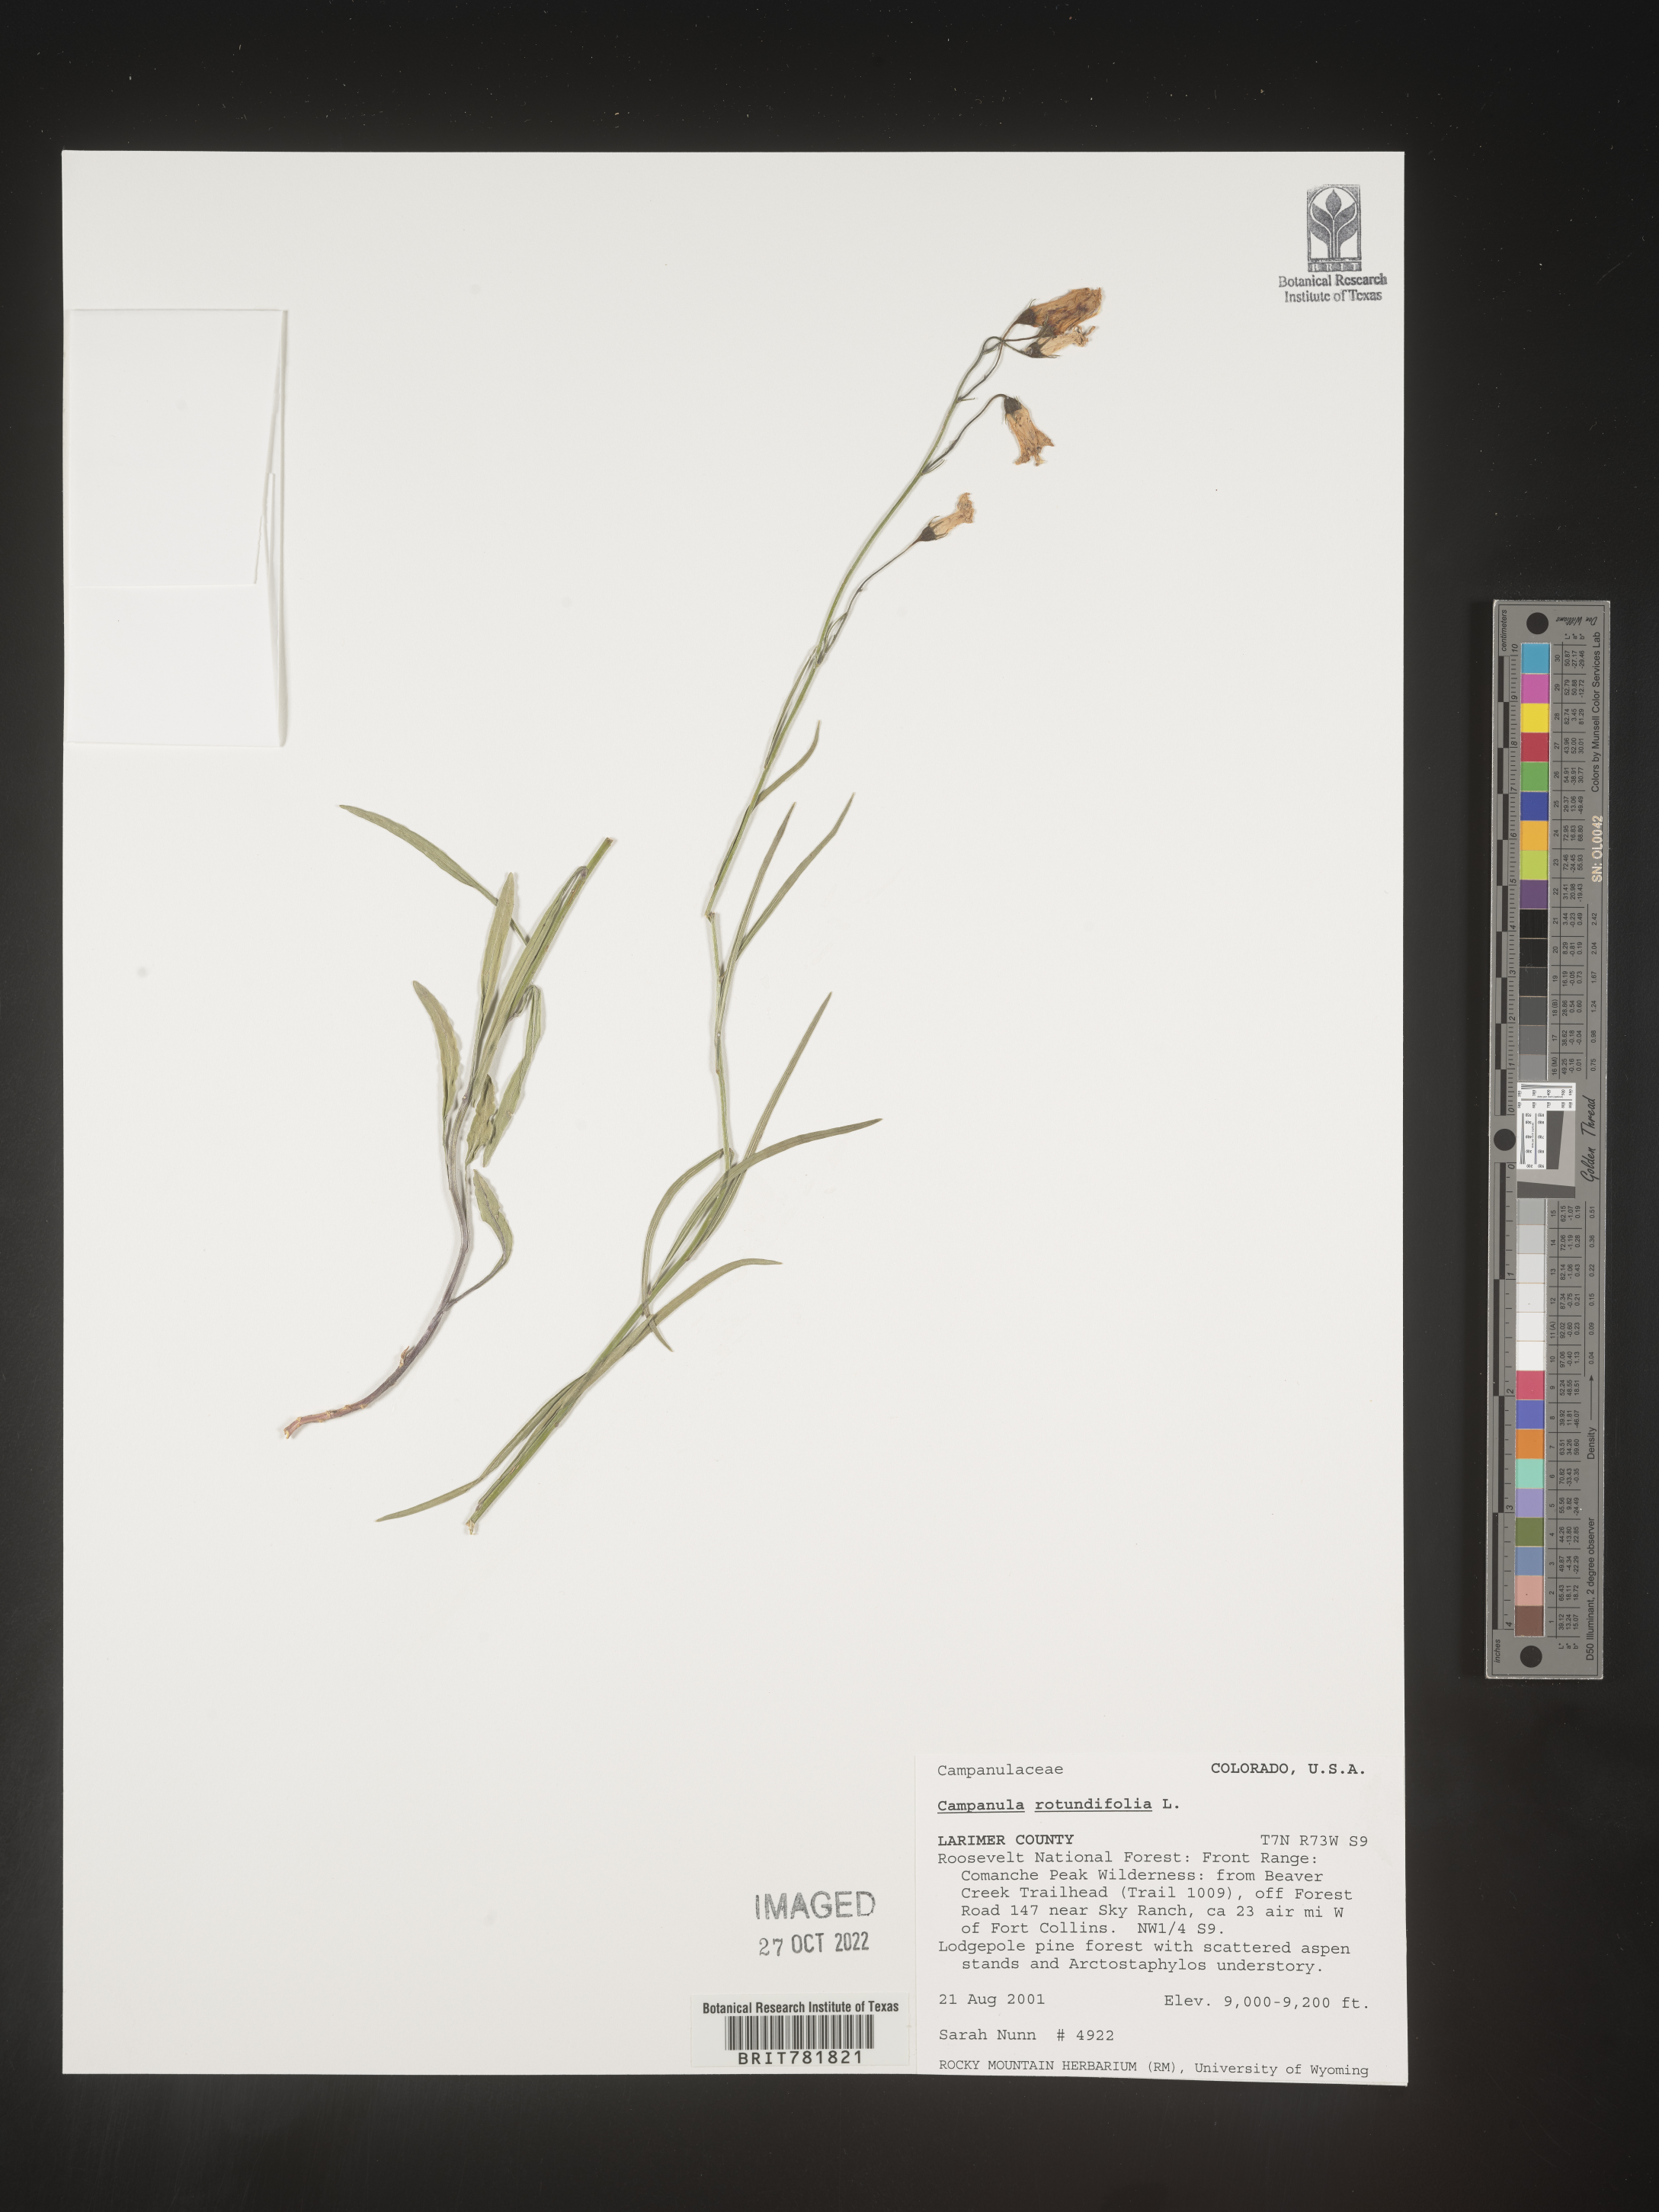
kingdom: Plantae
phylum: Tracheophyta
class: Magnoliopsida
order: Asterales
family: Campanulaceae
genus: Campanula
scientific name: Campanula rotundifolia
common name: Harebell
